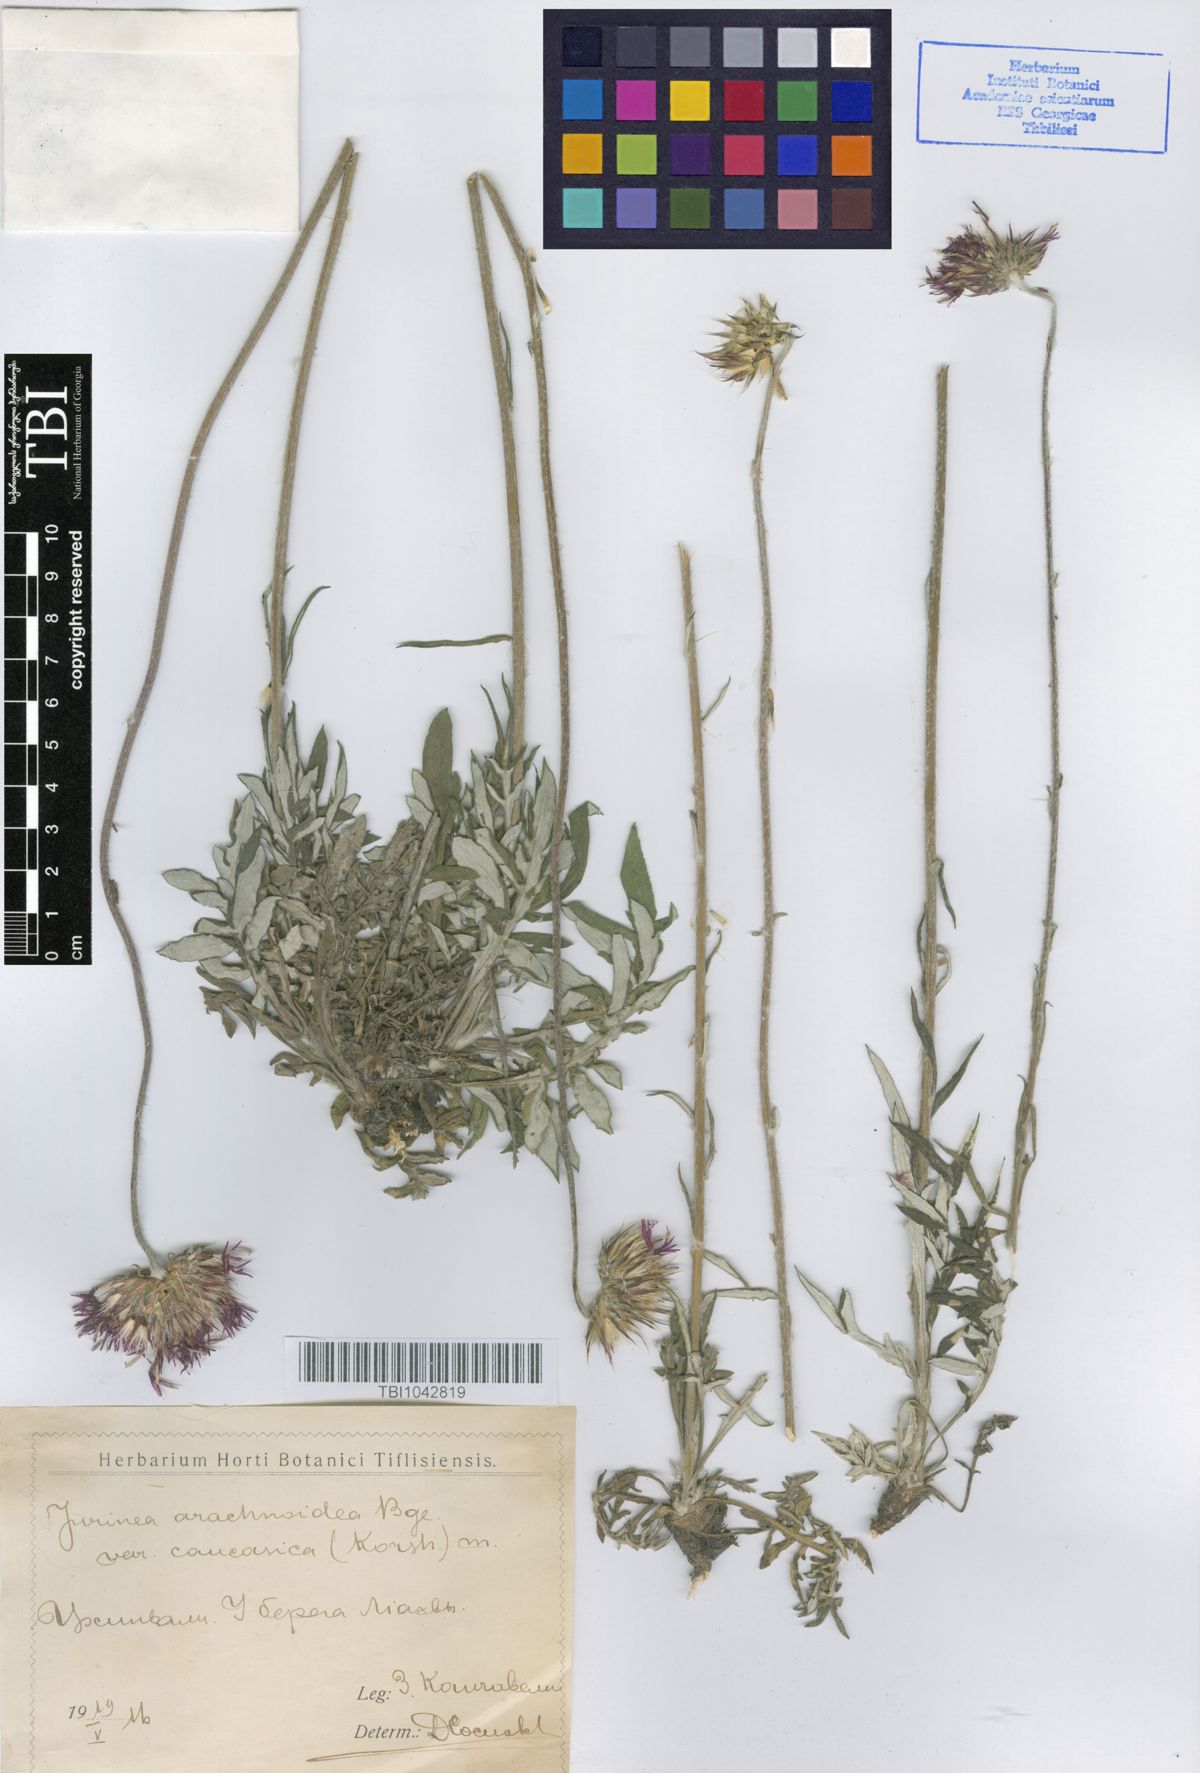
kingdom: Plantae
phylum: Tracheophyta
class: Magnoliopsida
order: Asterales
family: Asteraceae
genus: Jurinea
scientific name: Jurinea blanda
